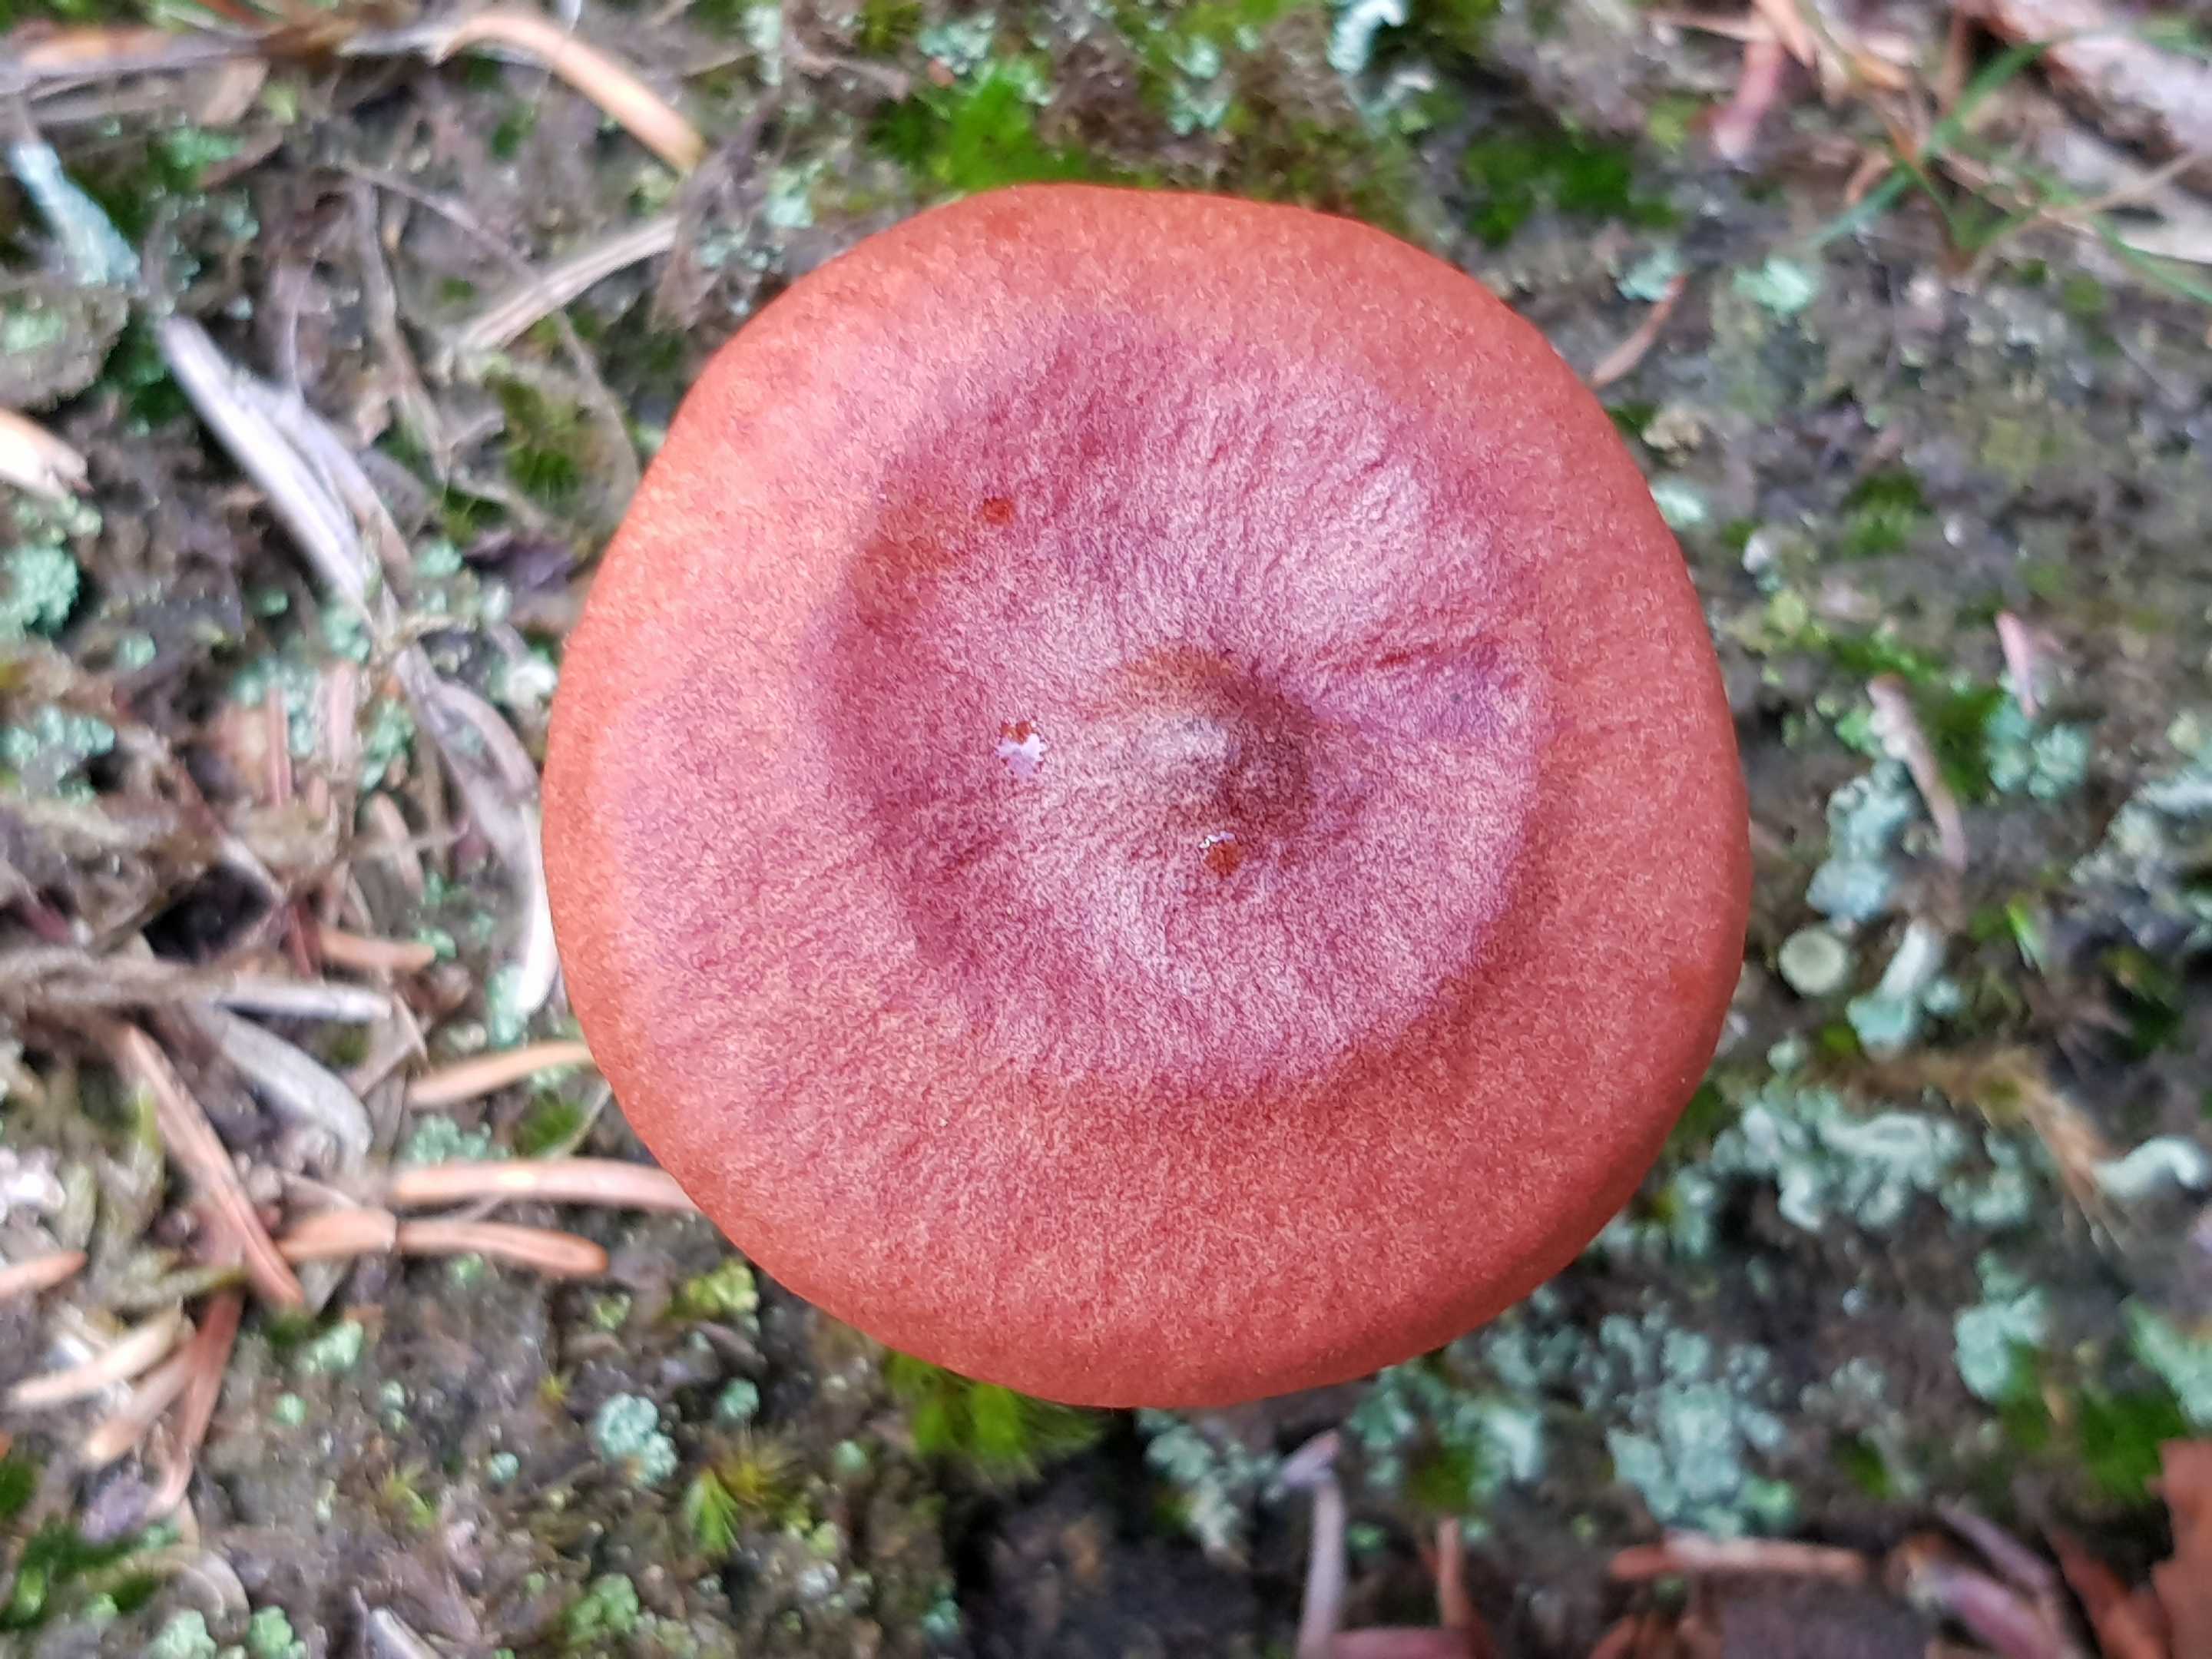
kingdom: Fungi
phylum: Basidiomycota
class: Agaricomycetes
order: Russulales
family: Russulaceae
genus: Lactarius
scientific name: Lactarius rufus
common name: rødbrun mælkehat
